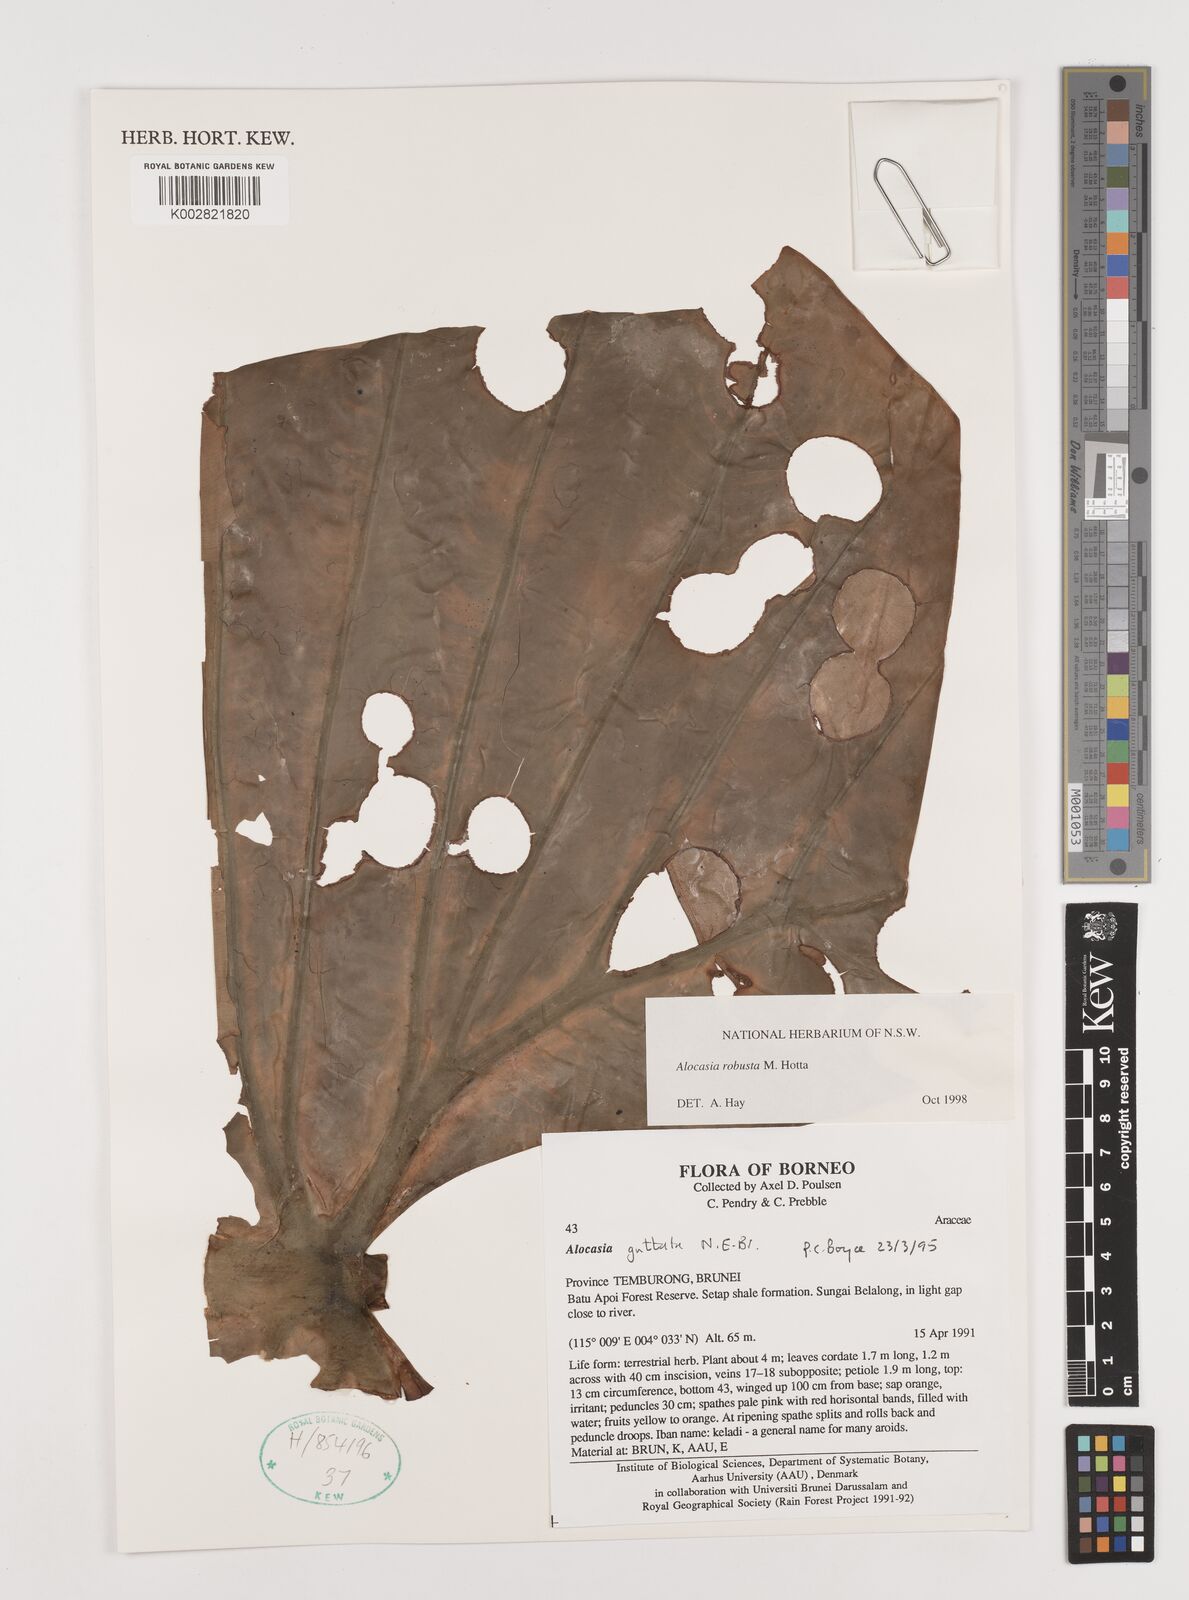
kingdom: Plantae
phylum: Tracheophyta
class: Liliopsida
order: Alismatales
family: Araceae
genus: Alocasia
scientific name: Alocasia robusta
